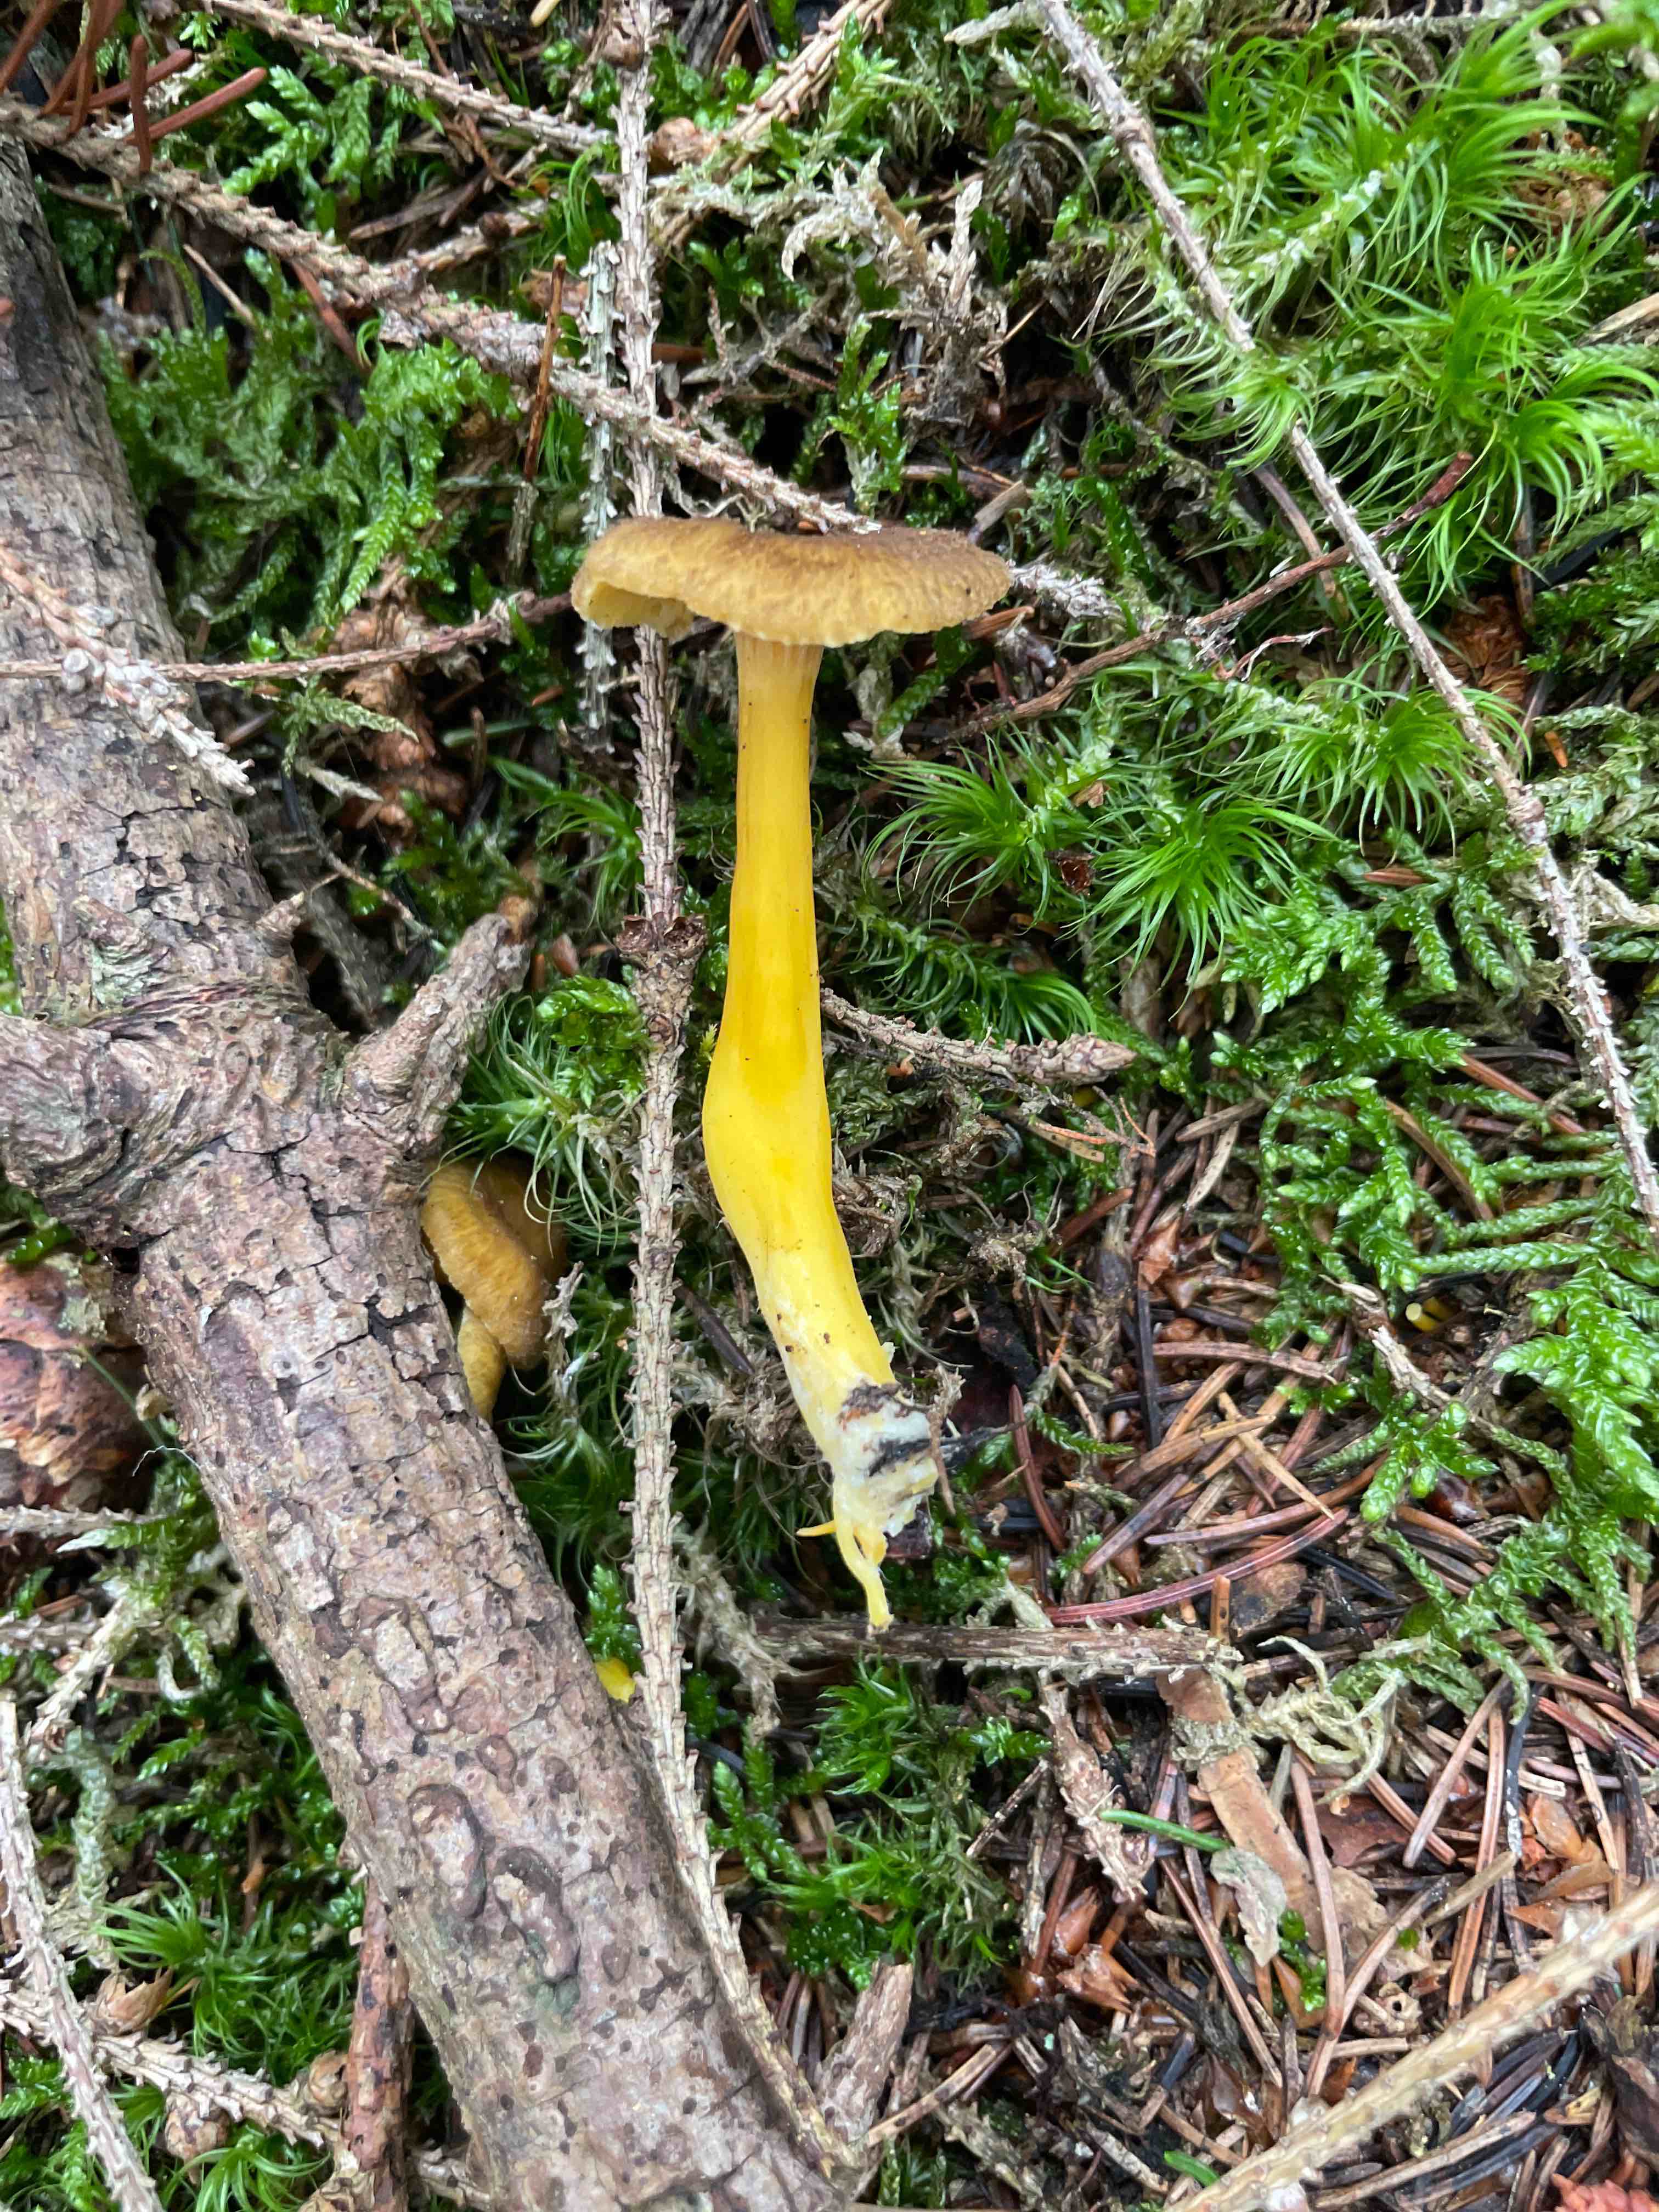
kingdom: Fungi
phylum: Basidiomycota
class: Agaricomycetes
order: Cantharellales
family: Hydnaceae
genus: Craterellus
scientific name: Craterellus tubaeformis
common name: tragt-kantarel
